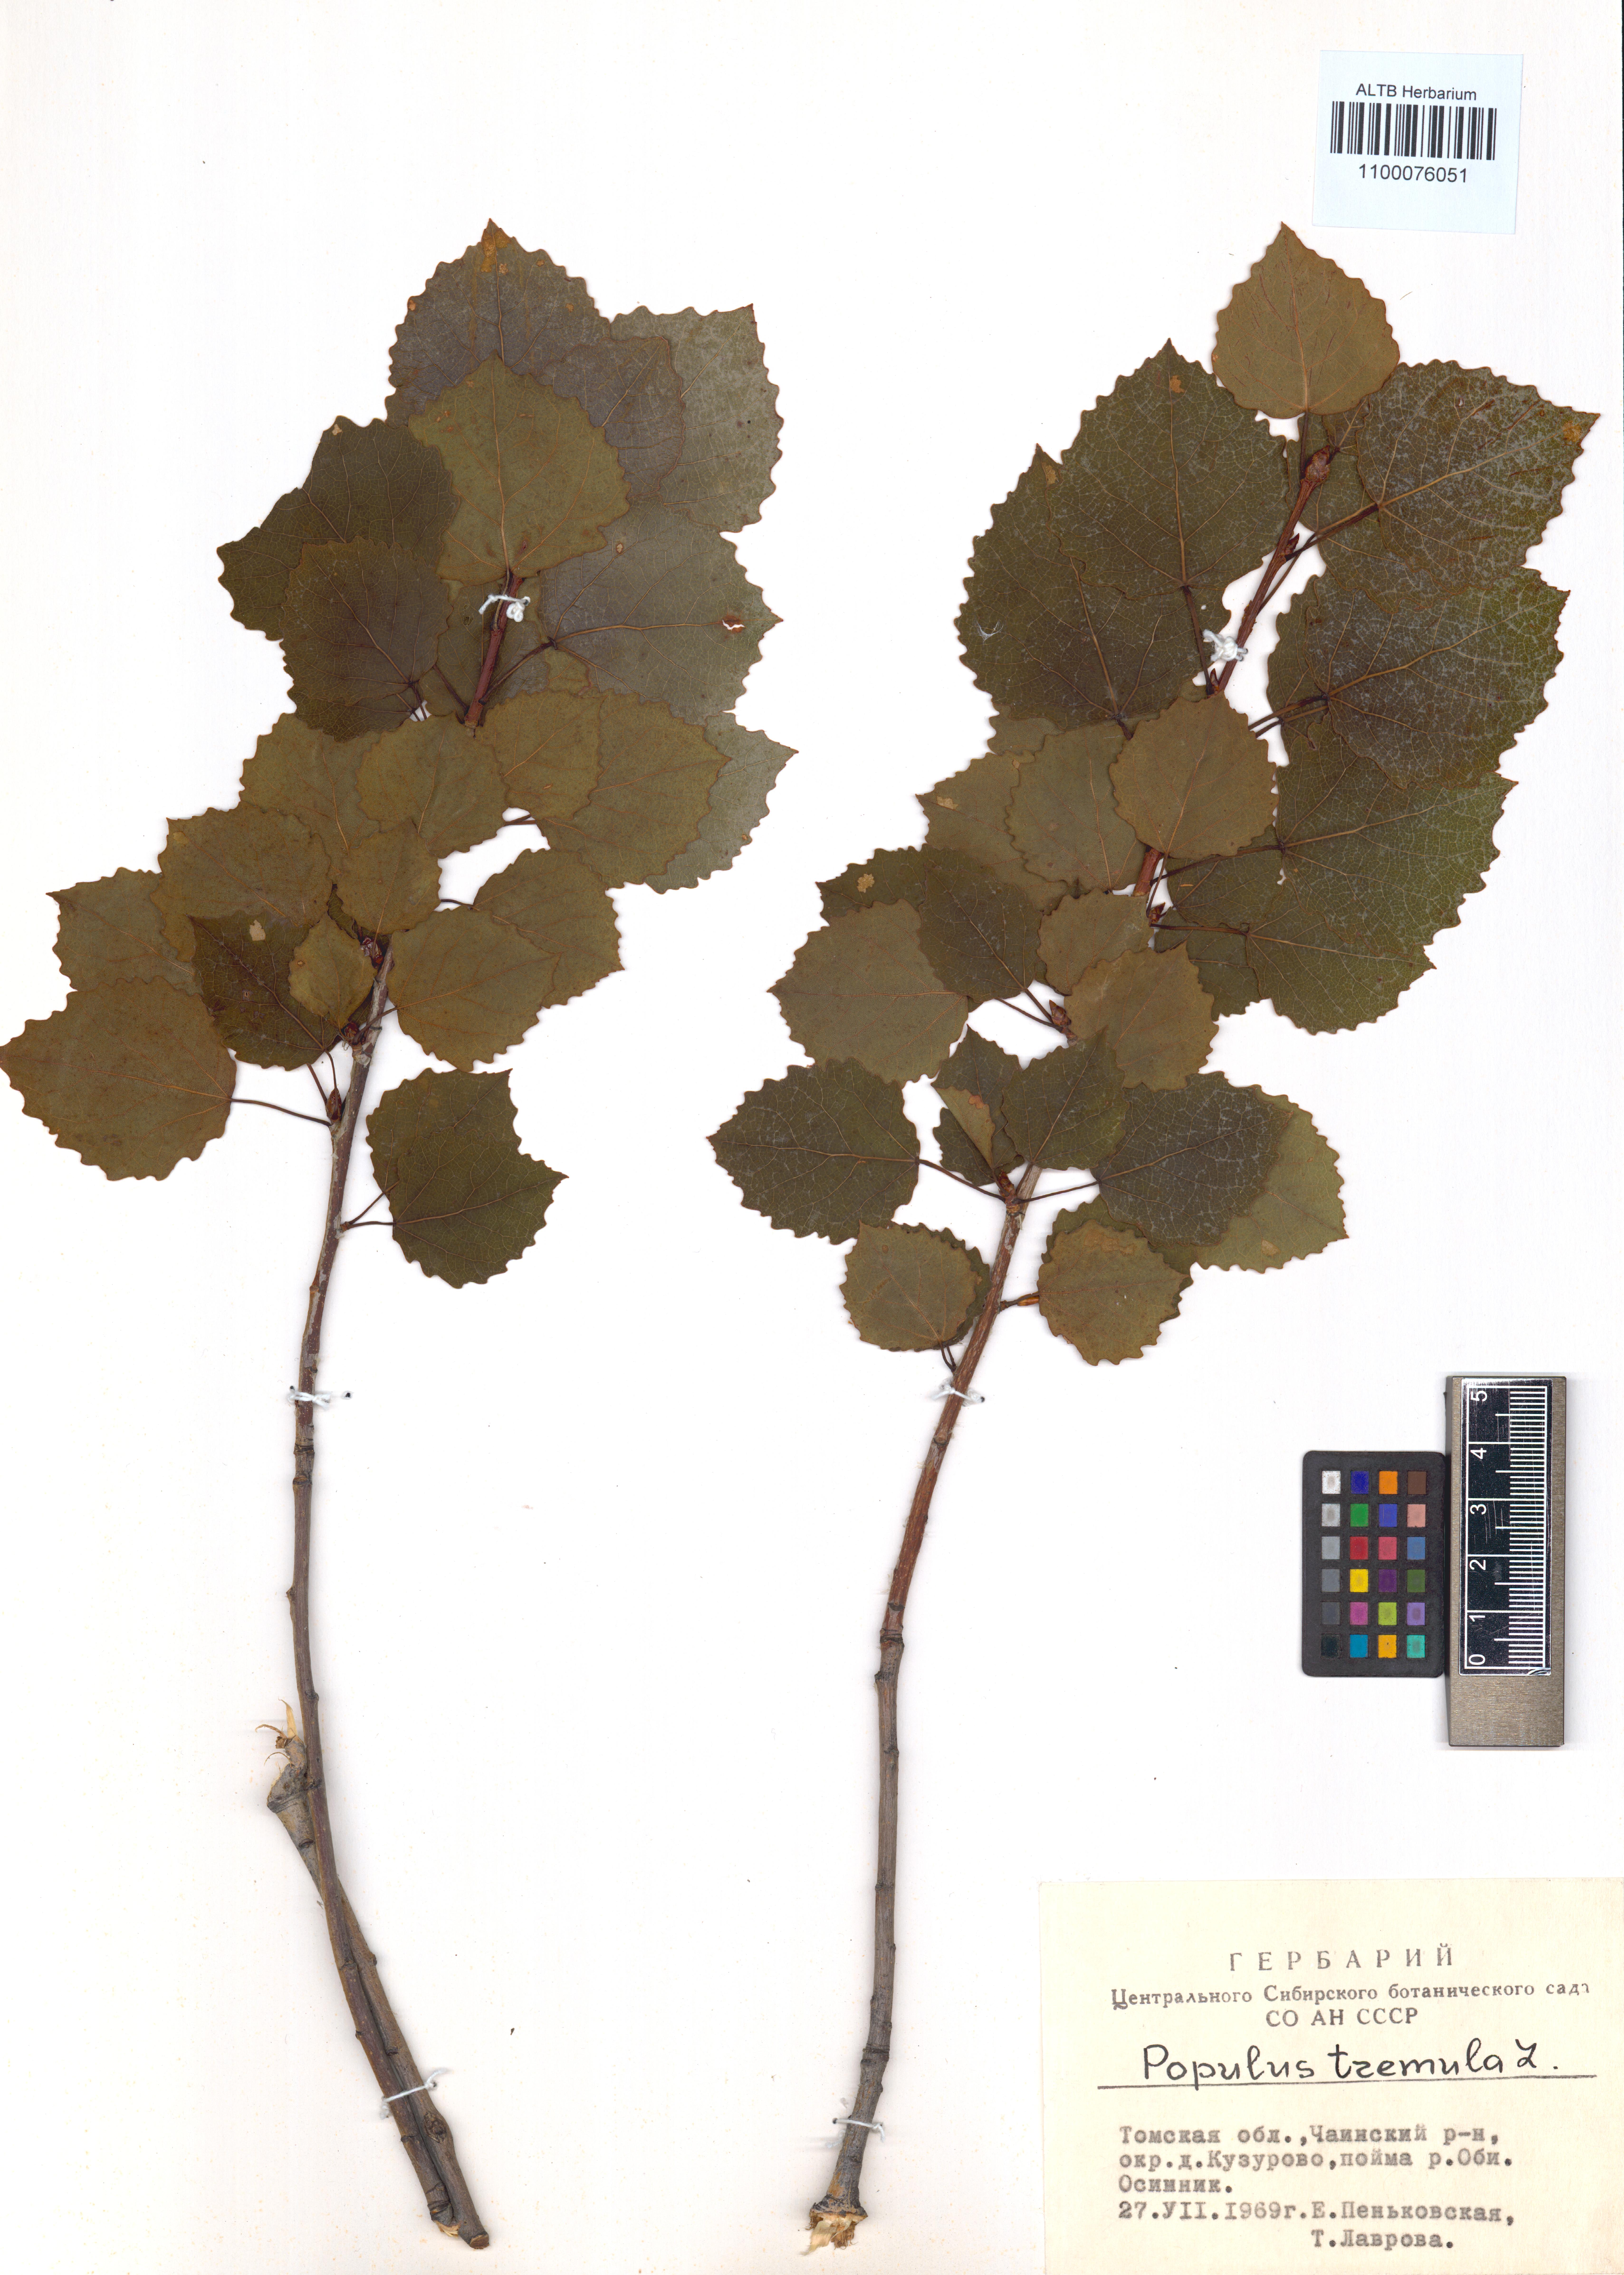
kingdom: Plantae
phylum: Tracheophyta
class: Magnoliopsida
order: Malpighiales
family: Salicaceae
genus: Populus
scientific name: Populus tremula
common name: European aspen
